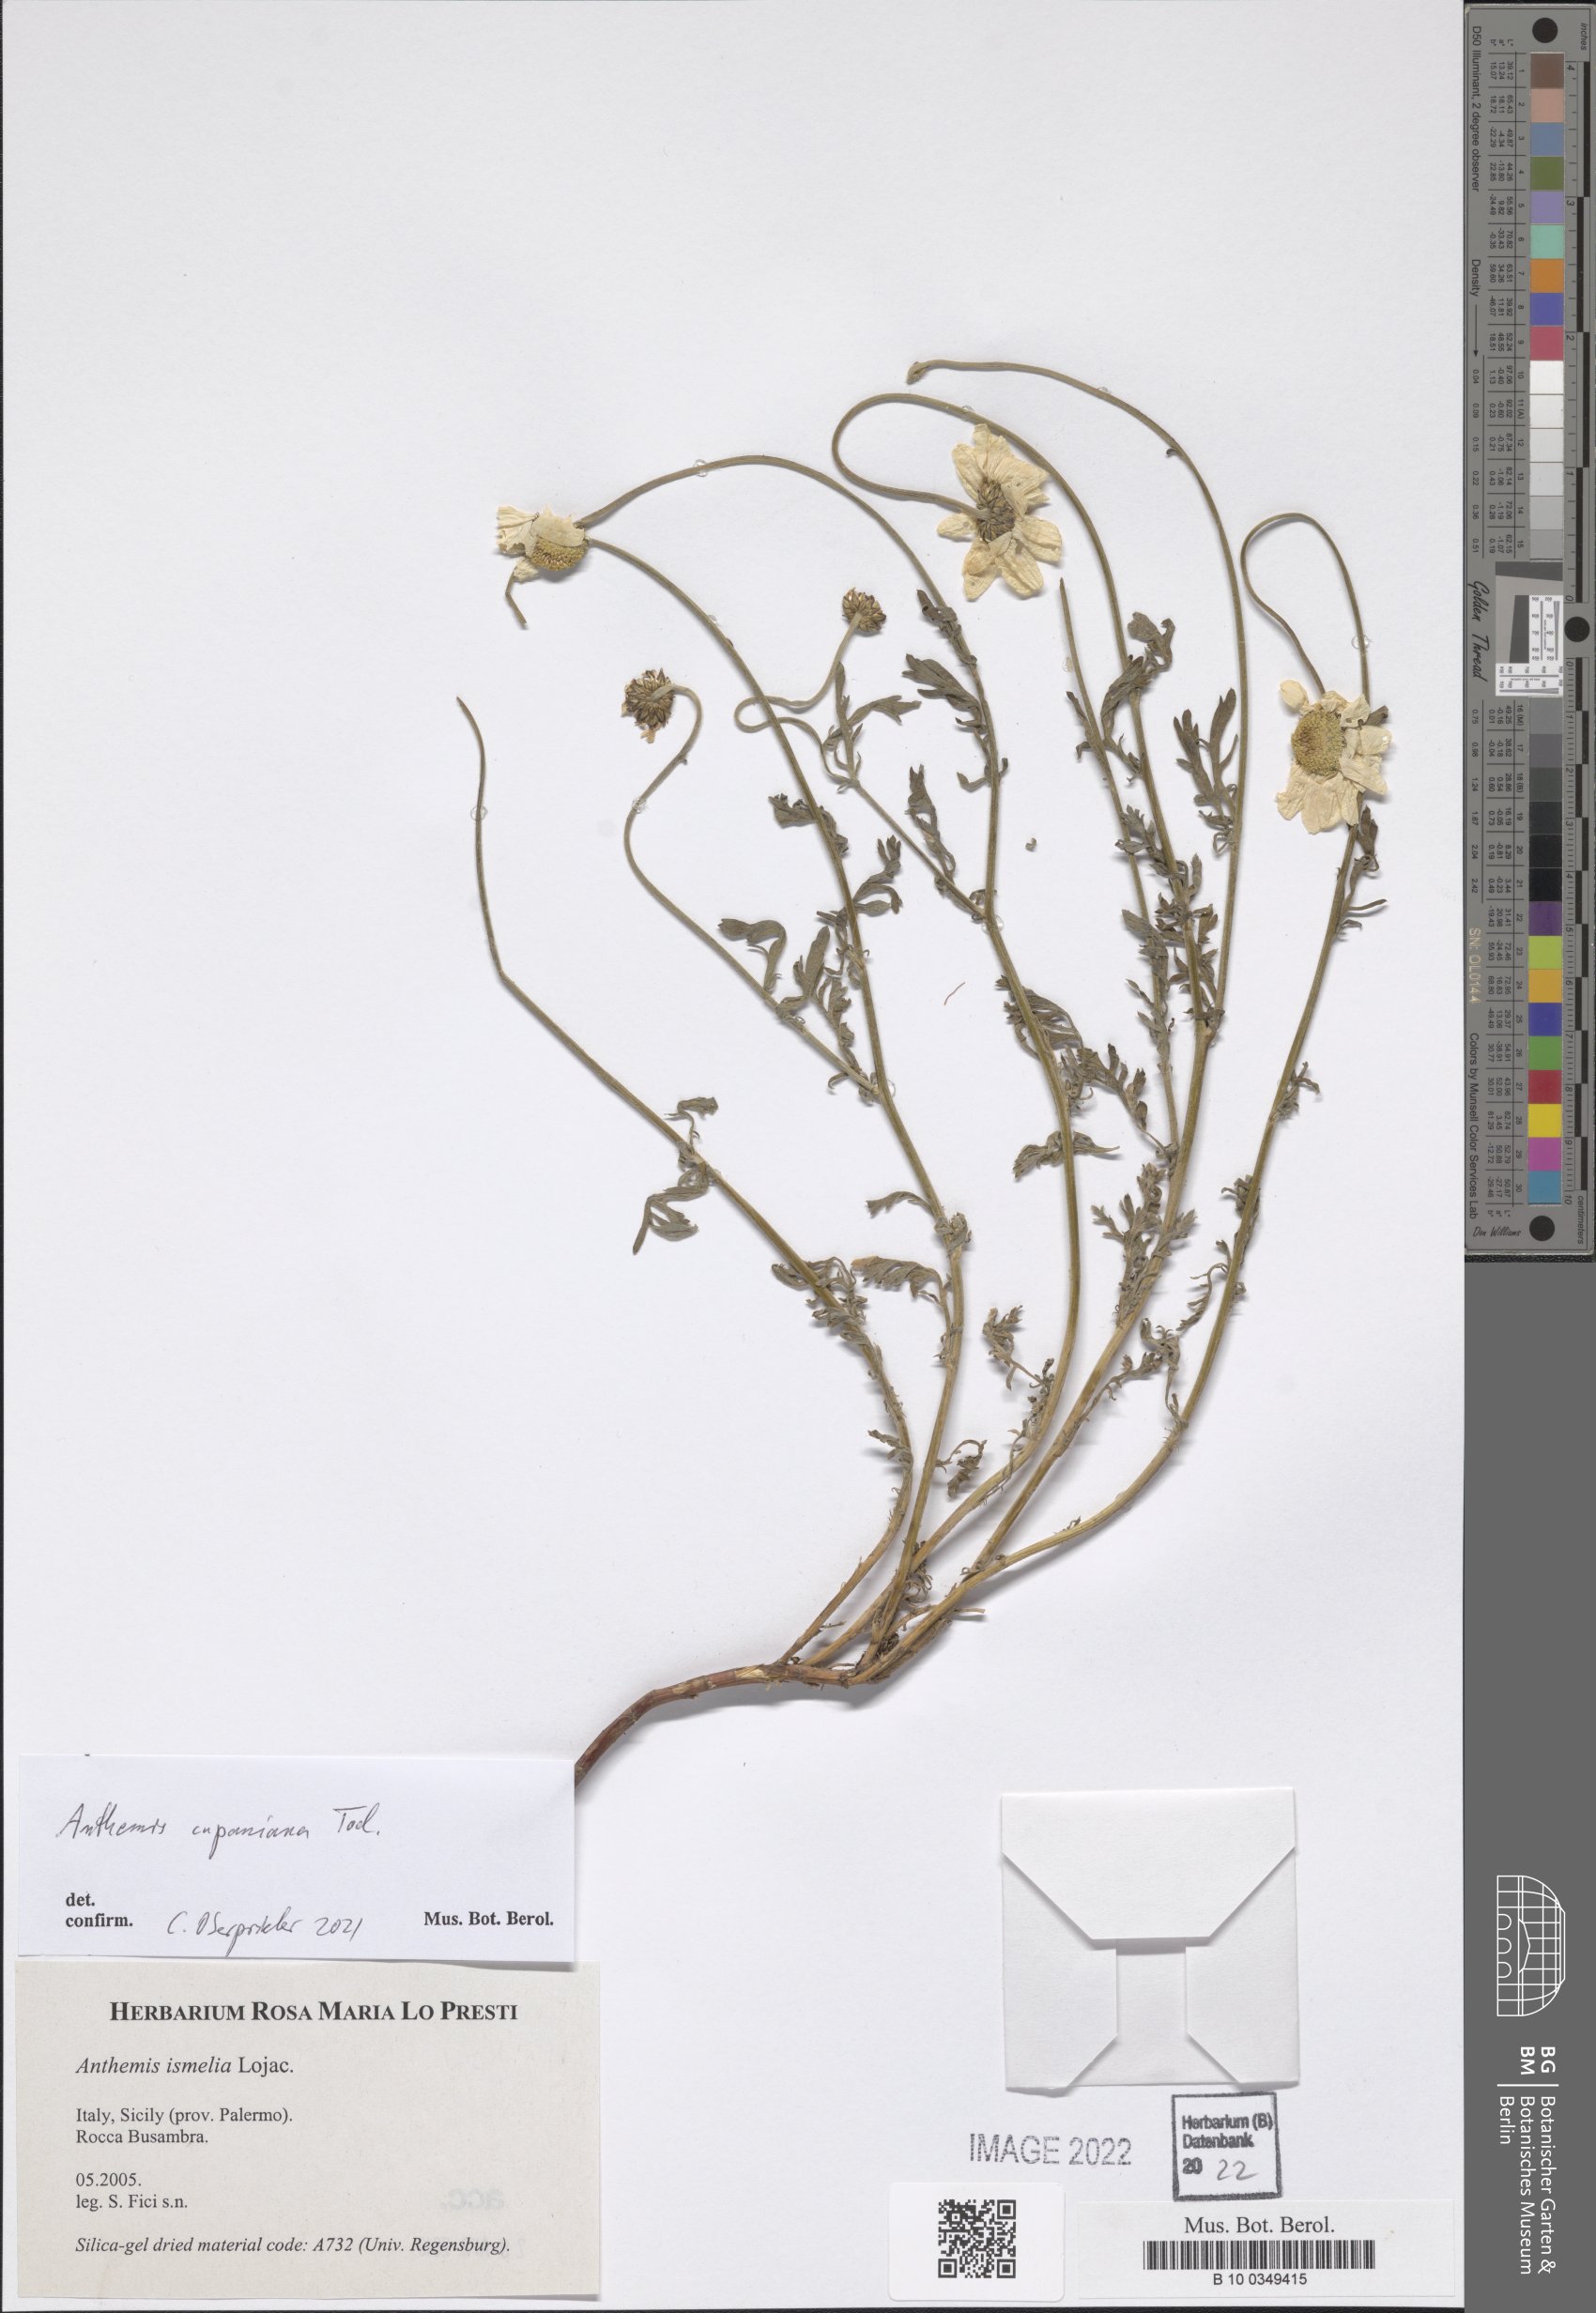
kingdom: Plantae
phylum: Tracheophyta
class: Magnoliopsida
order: Asterales
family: Asteraceae
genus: Anthemis
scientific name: Anthemis cupaniana
